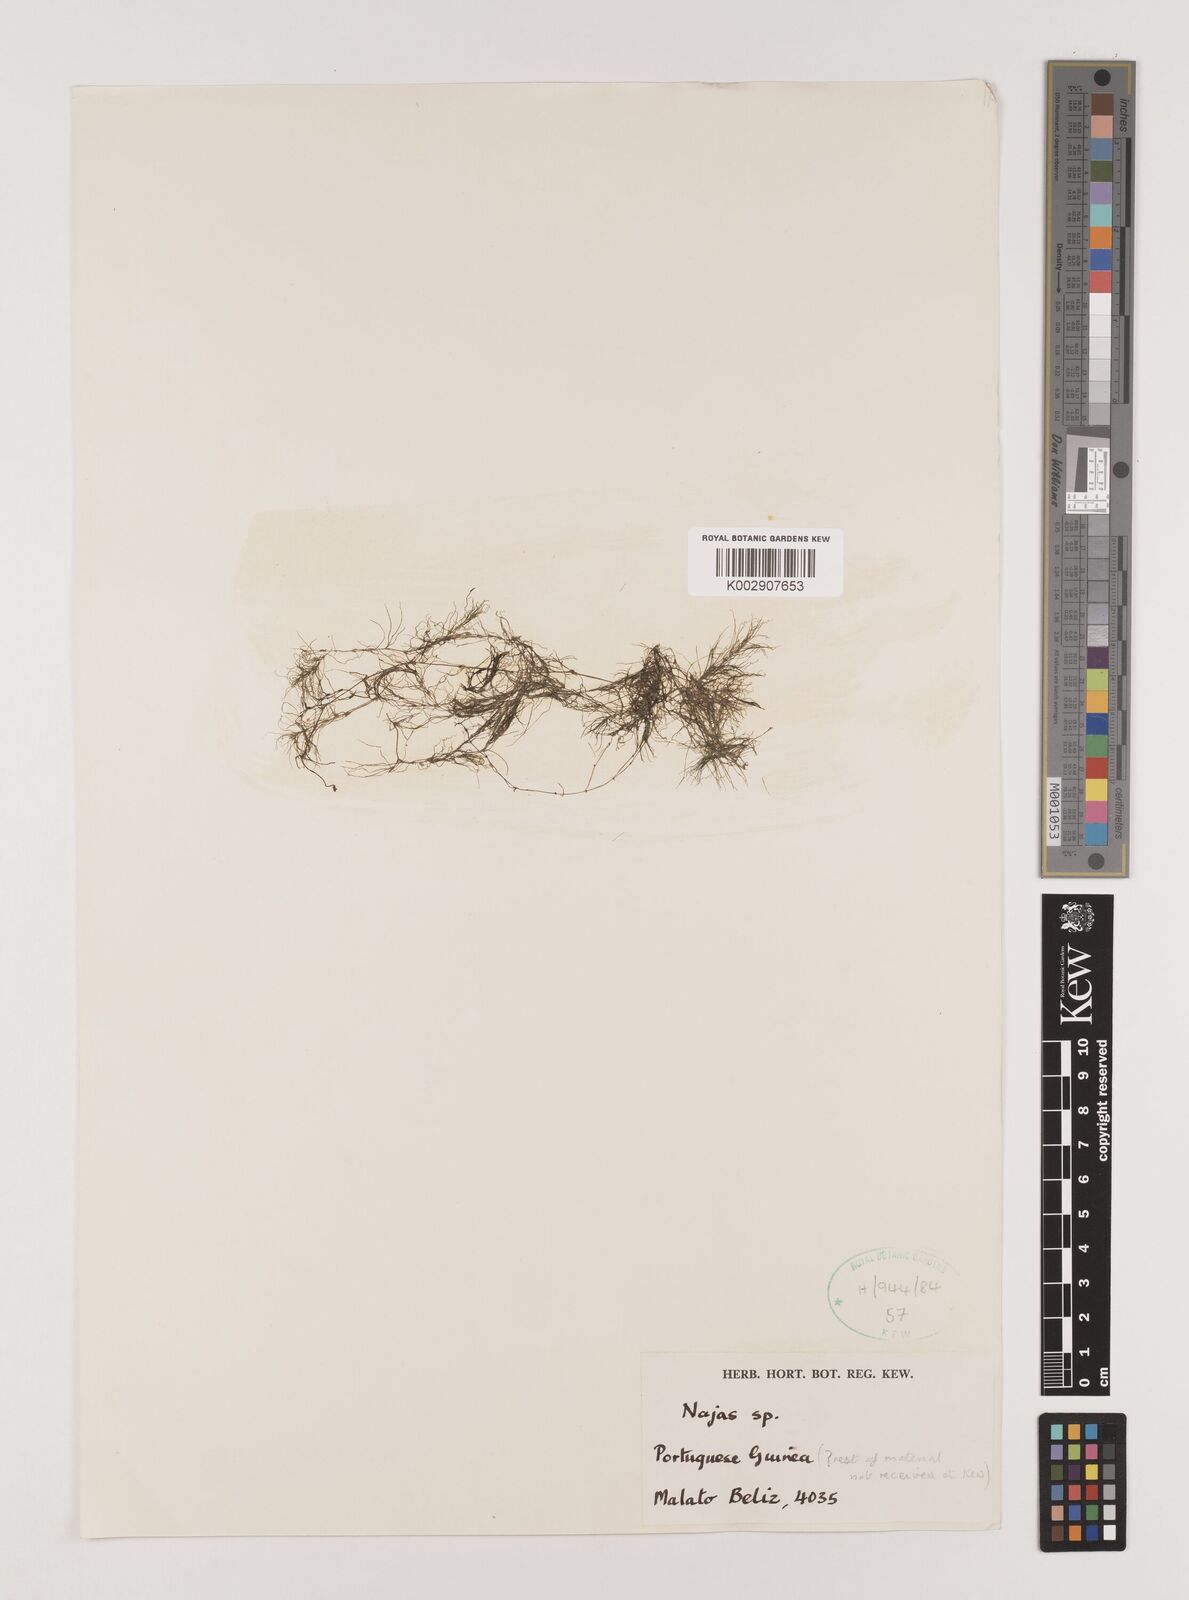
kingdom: Plantae
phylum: Tracheophyta
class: Liliopsida
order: Alismatales
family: Hydrocharitaceae
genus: Najas
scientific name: Najas
